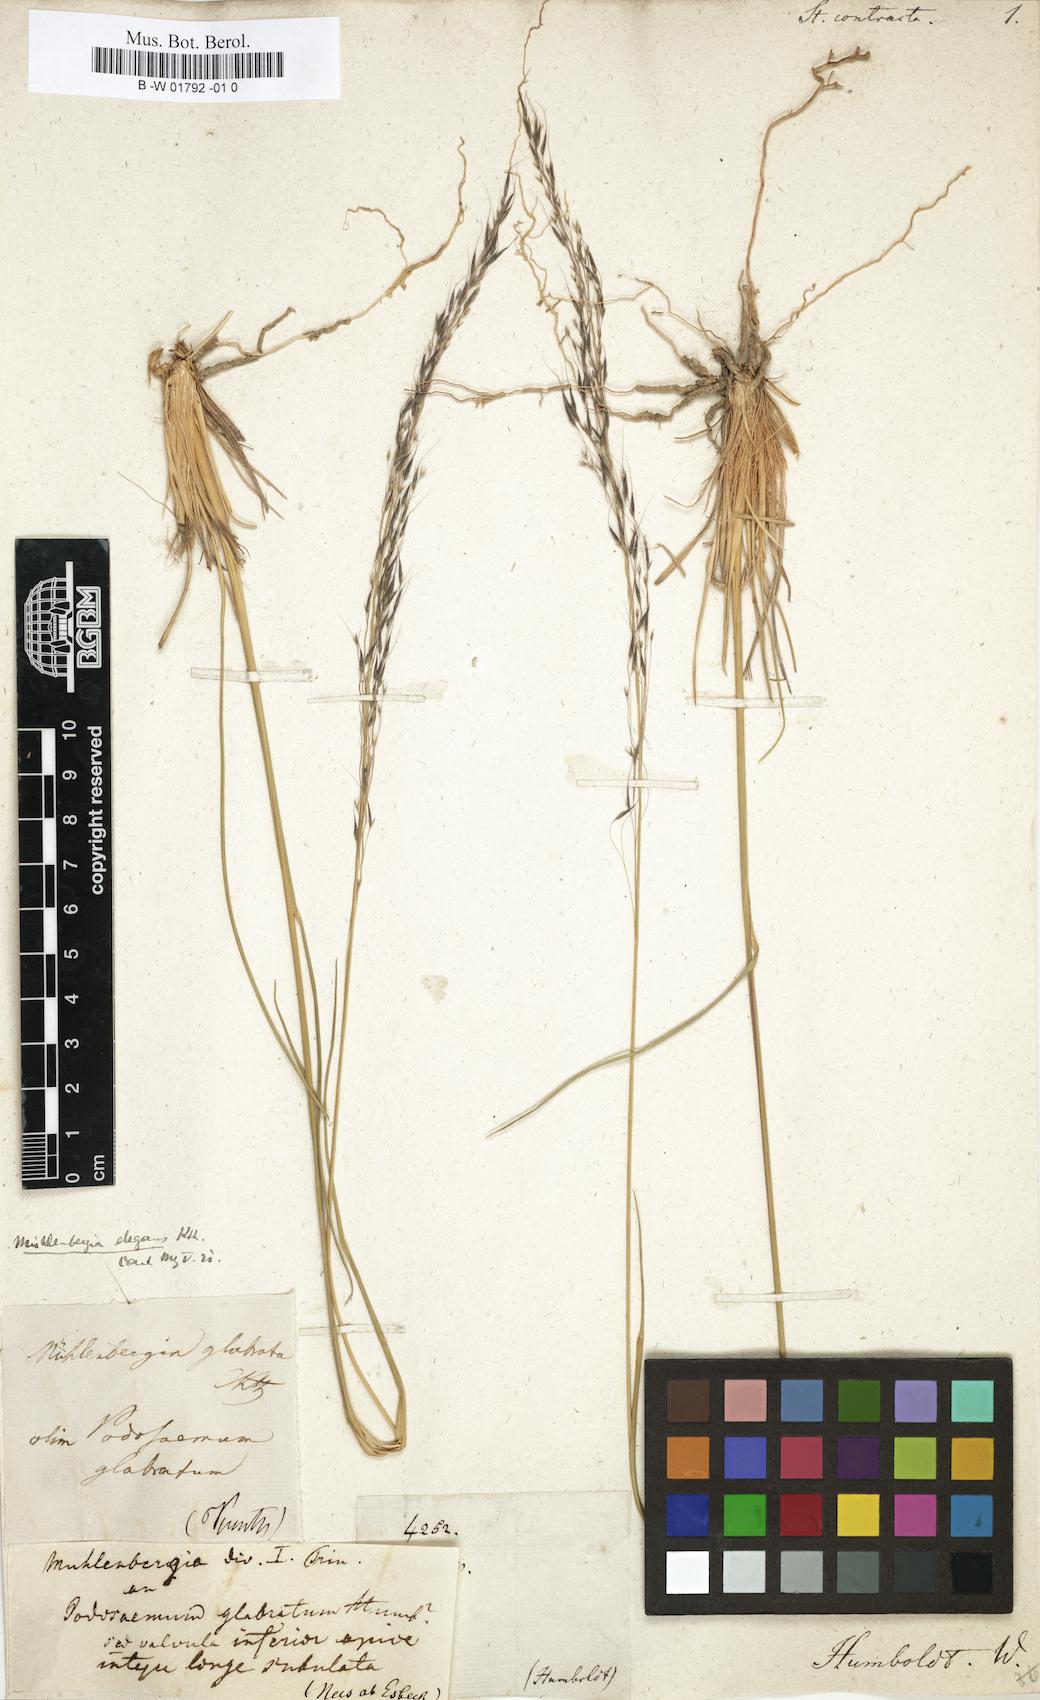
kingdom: Plantae
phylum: Tracheophyta
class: Liliopsida
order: Poales
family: Poaceae
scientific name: Poaceae
